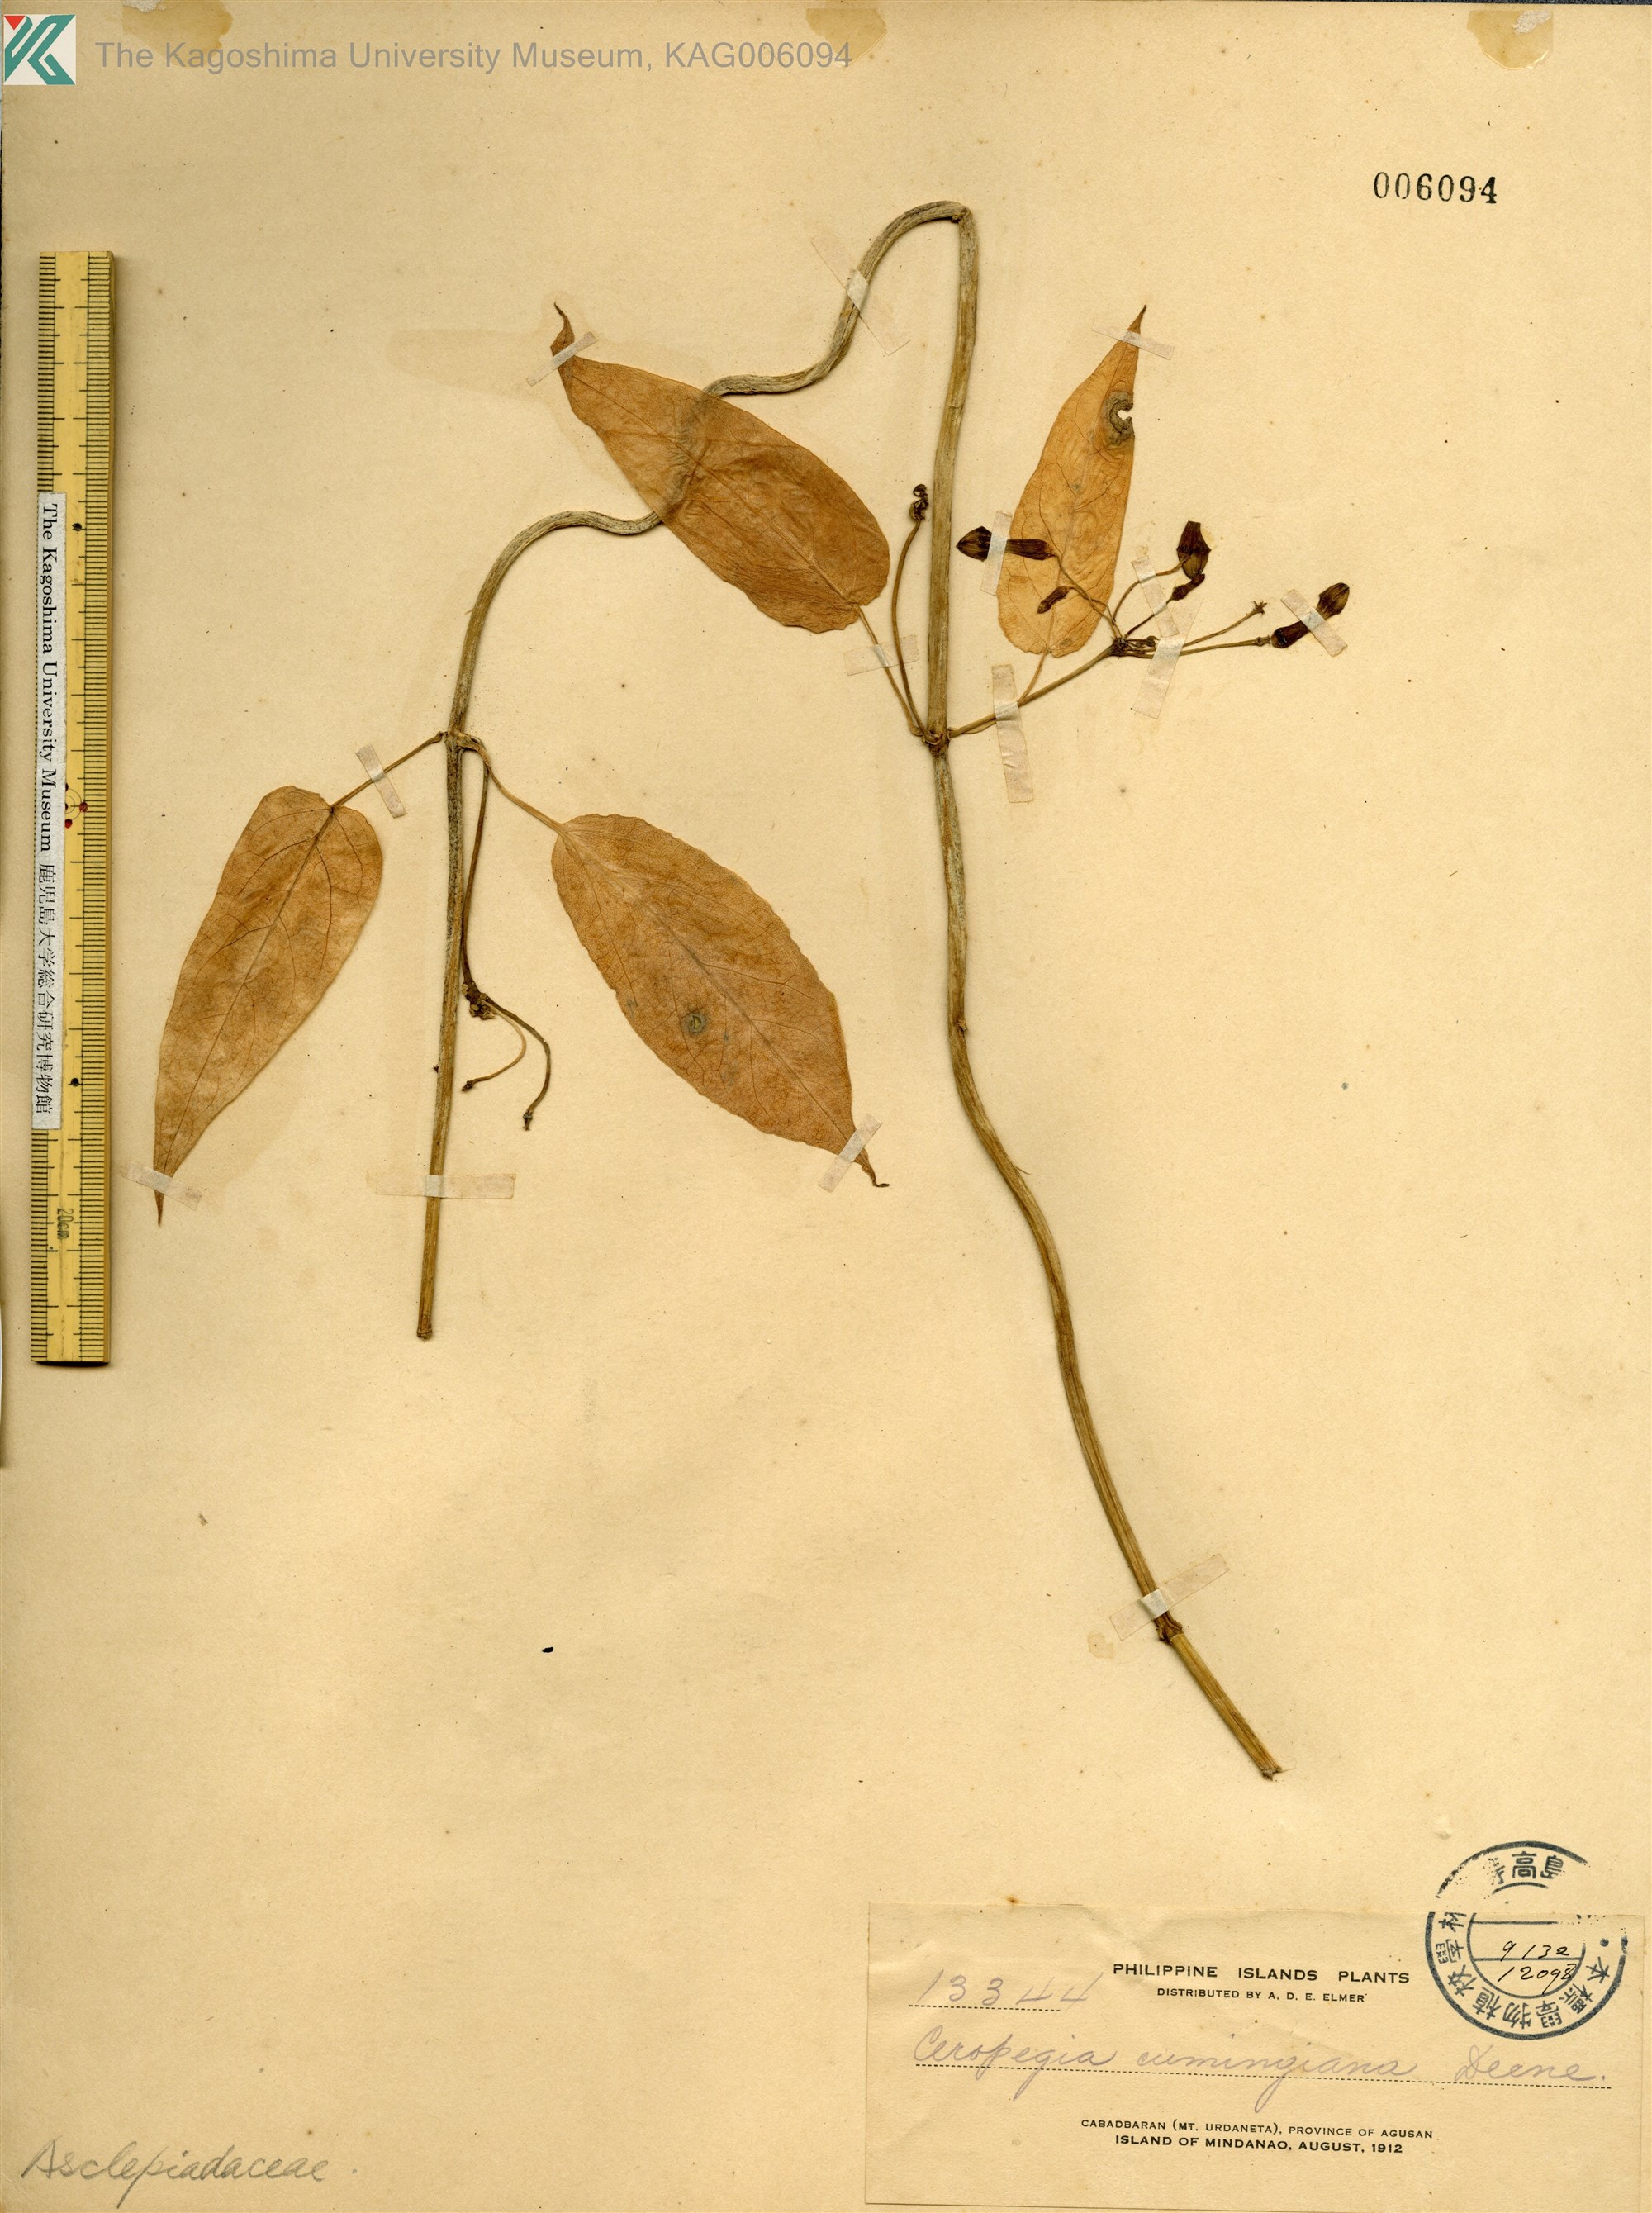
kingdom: Plantae
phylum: Tracheophyta
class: Magnoliopsida
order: Gentianales
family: Apocynaceae
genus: Ceropegia
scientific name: Ceropegia cumingiana
